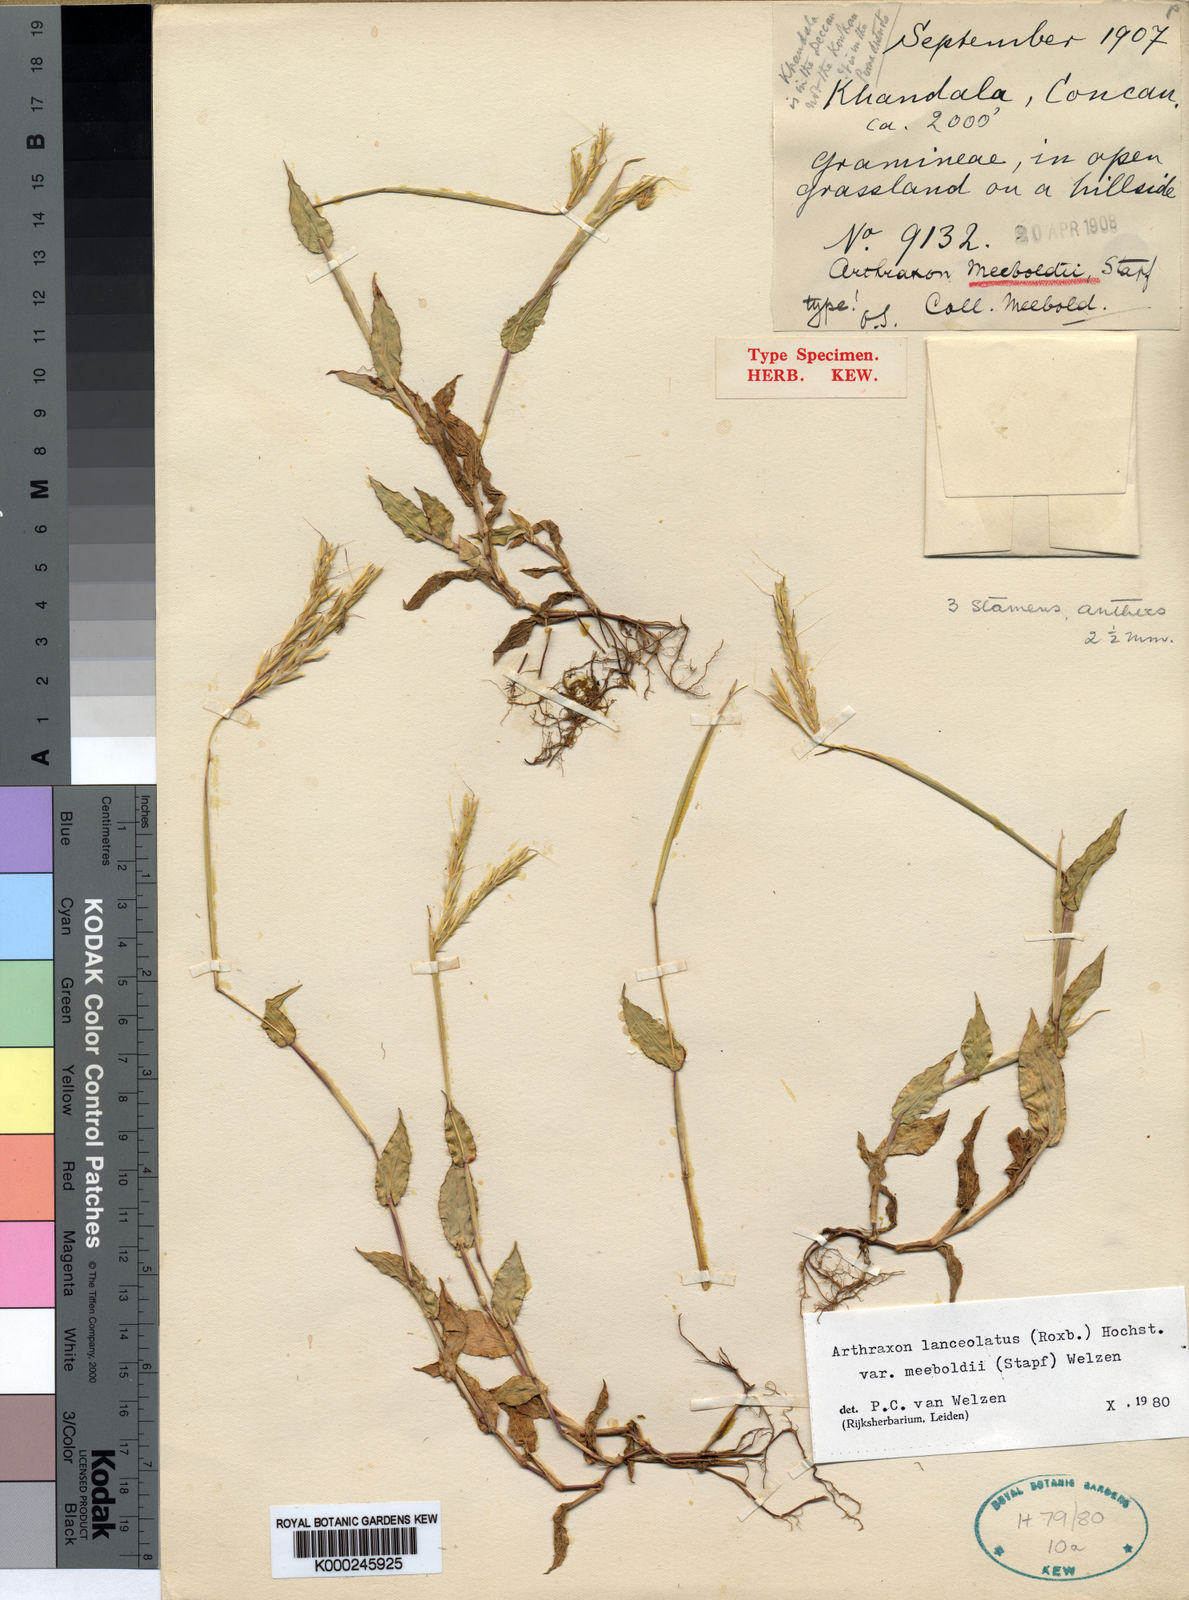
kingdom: Plantae
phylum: Tracheophyta
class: Liliopsida
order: Poales
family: Poaceae
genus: Arthraxon
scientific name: Arthraxon meeboldii
